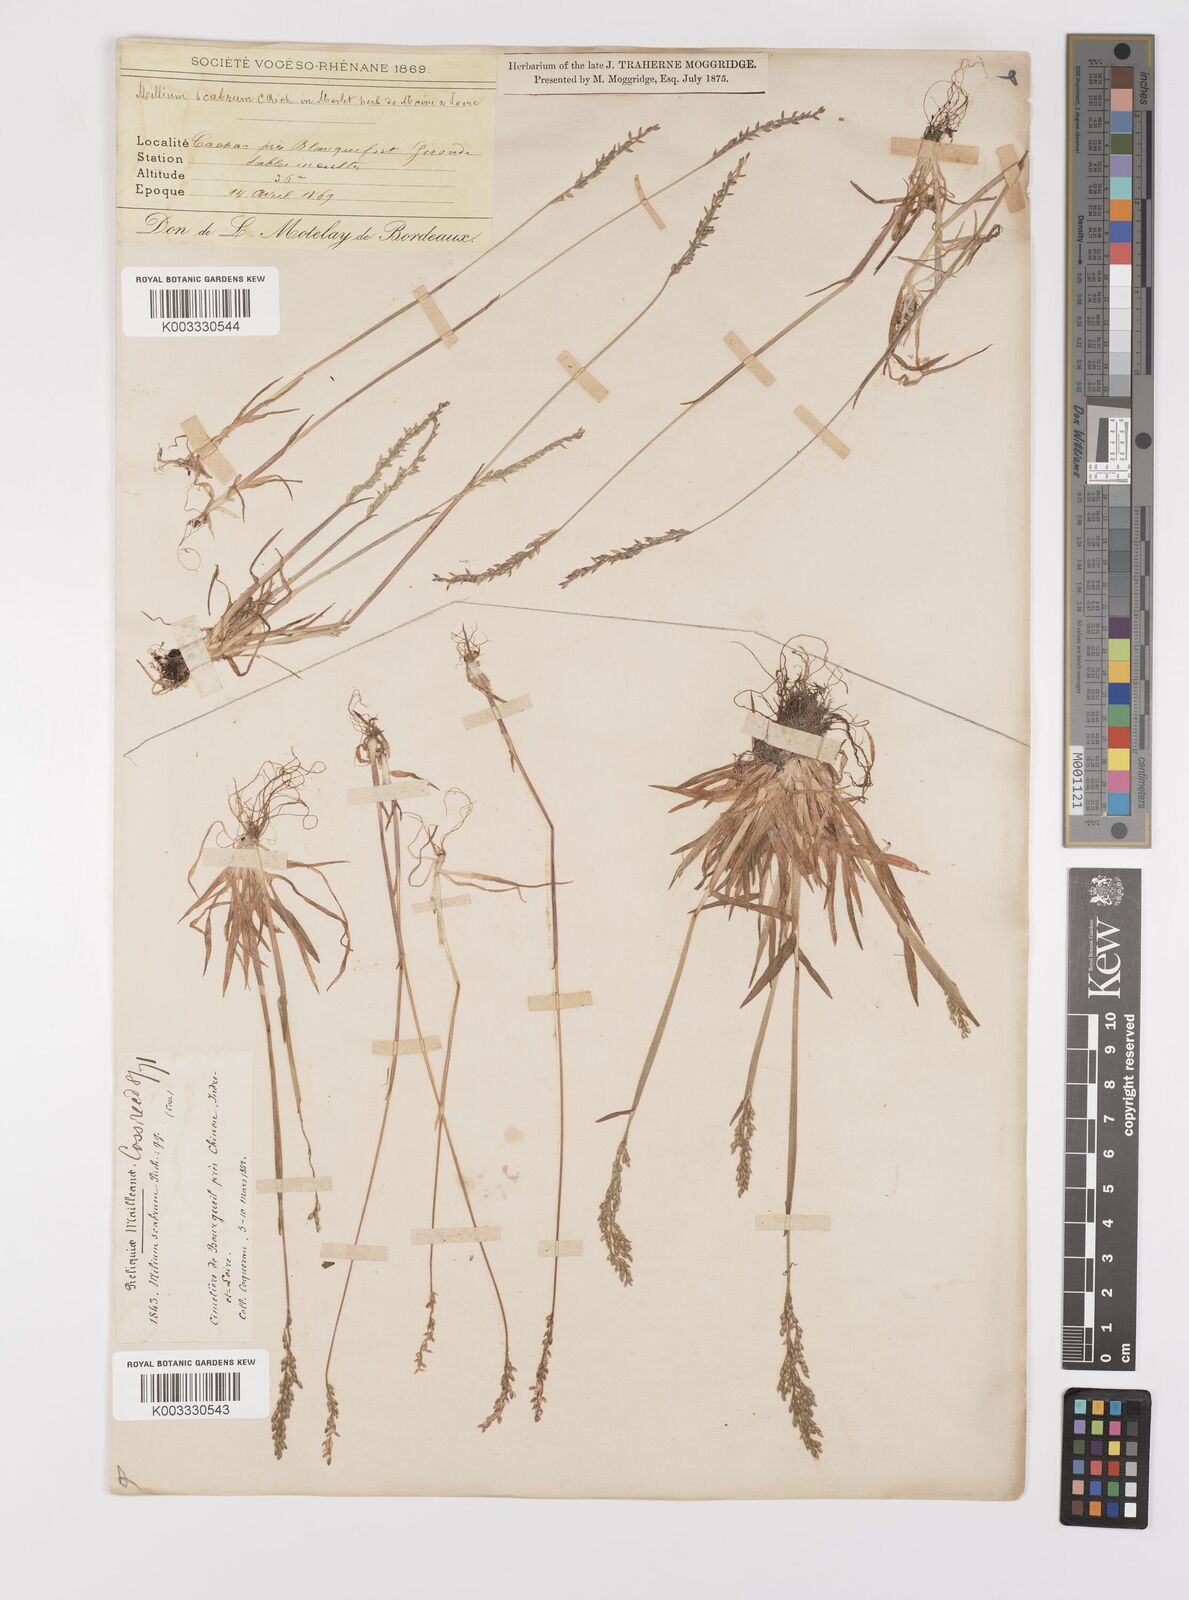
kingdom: Plantae
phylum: Tracheophyta
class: Liliopsida
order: Poales
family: Poaceae
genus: Milium
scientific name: Milium vernale
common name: Early millet
